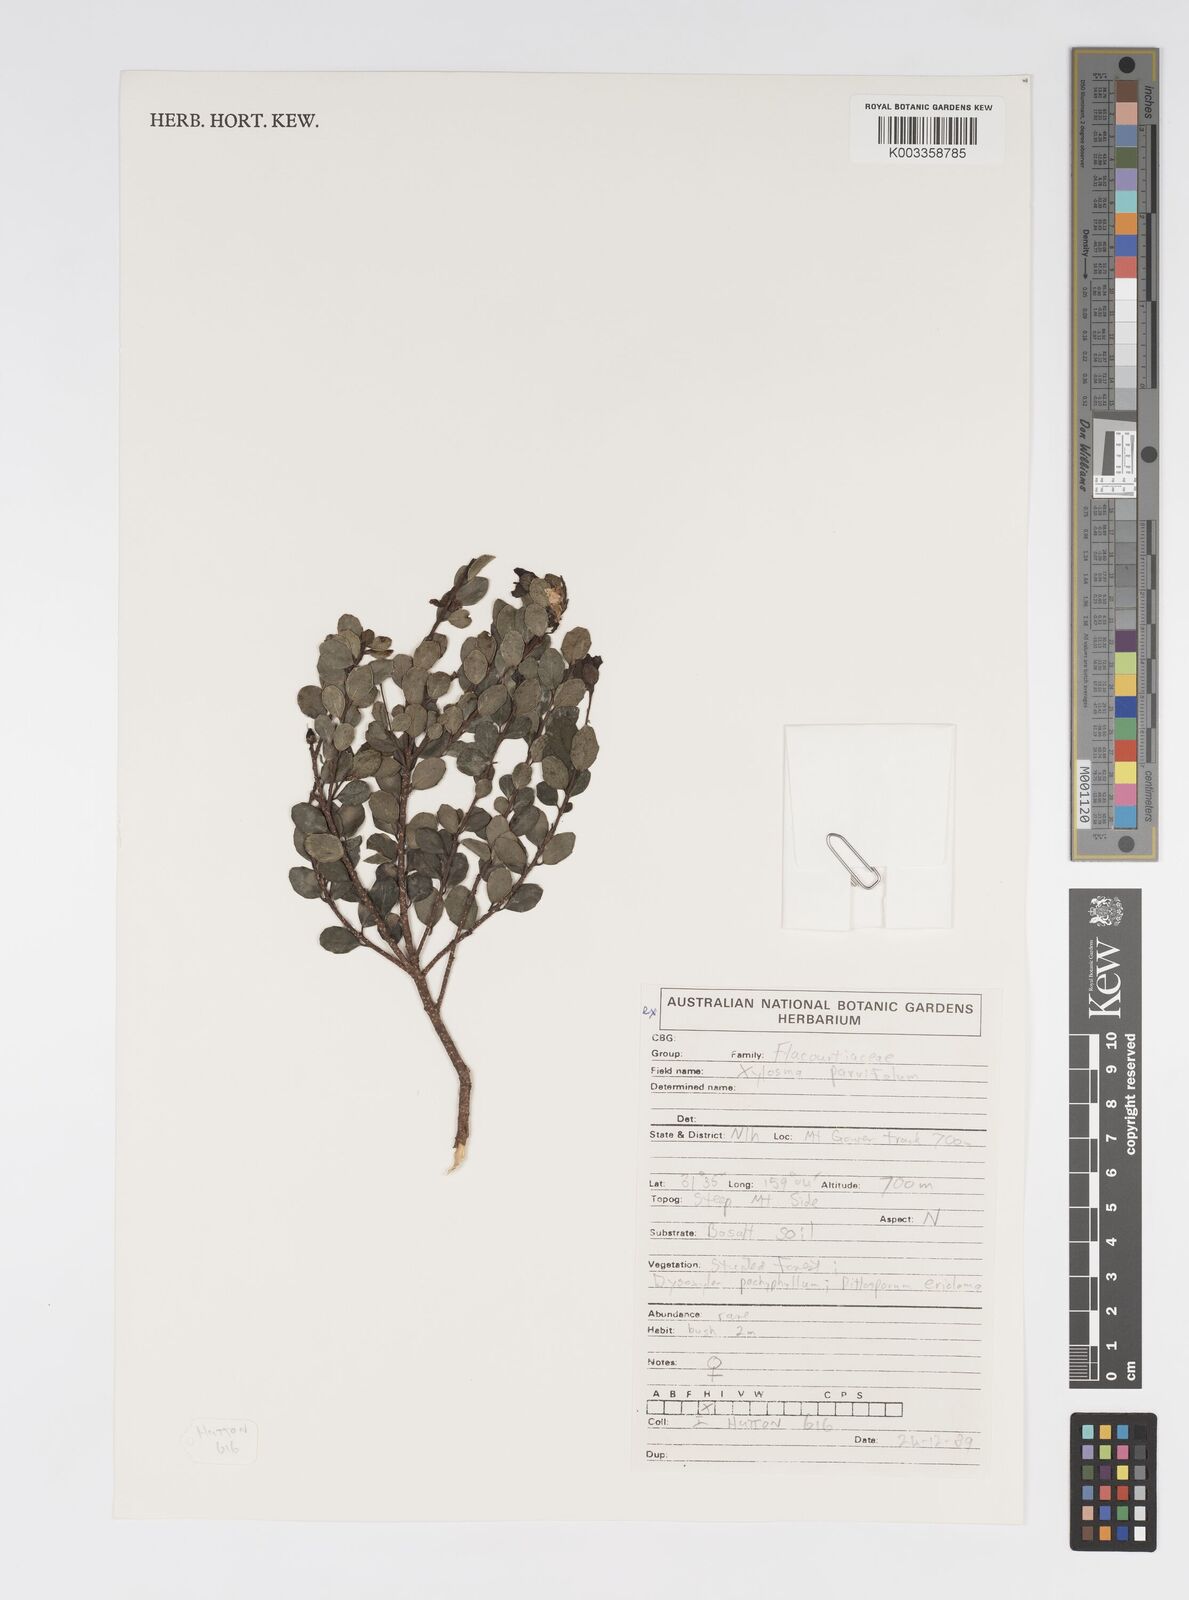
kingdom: Plantae
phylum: Tracheophyta
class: Magnoliopsida
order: Malpighiales
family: Salicaceae
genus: Xylosma
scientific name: Xylosma parvifolia
